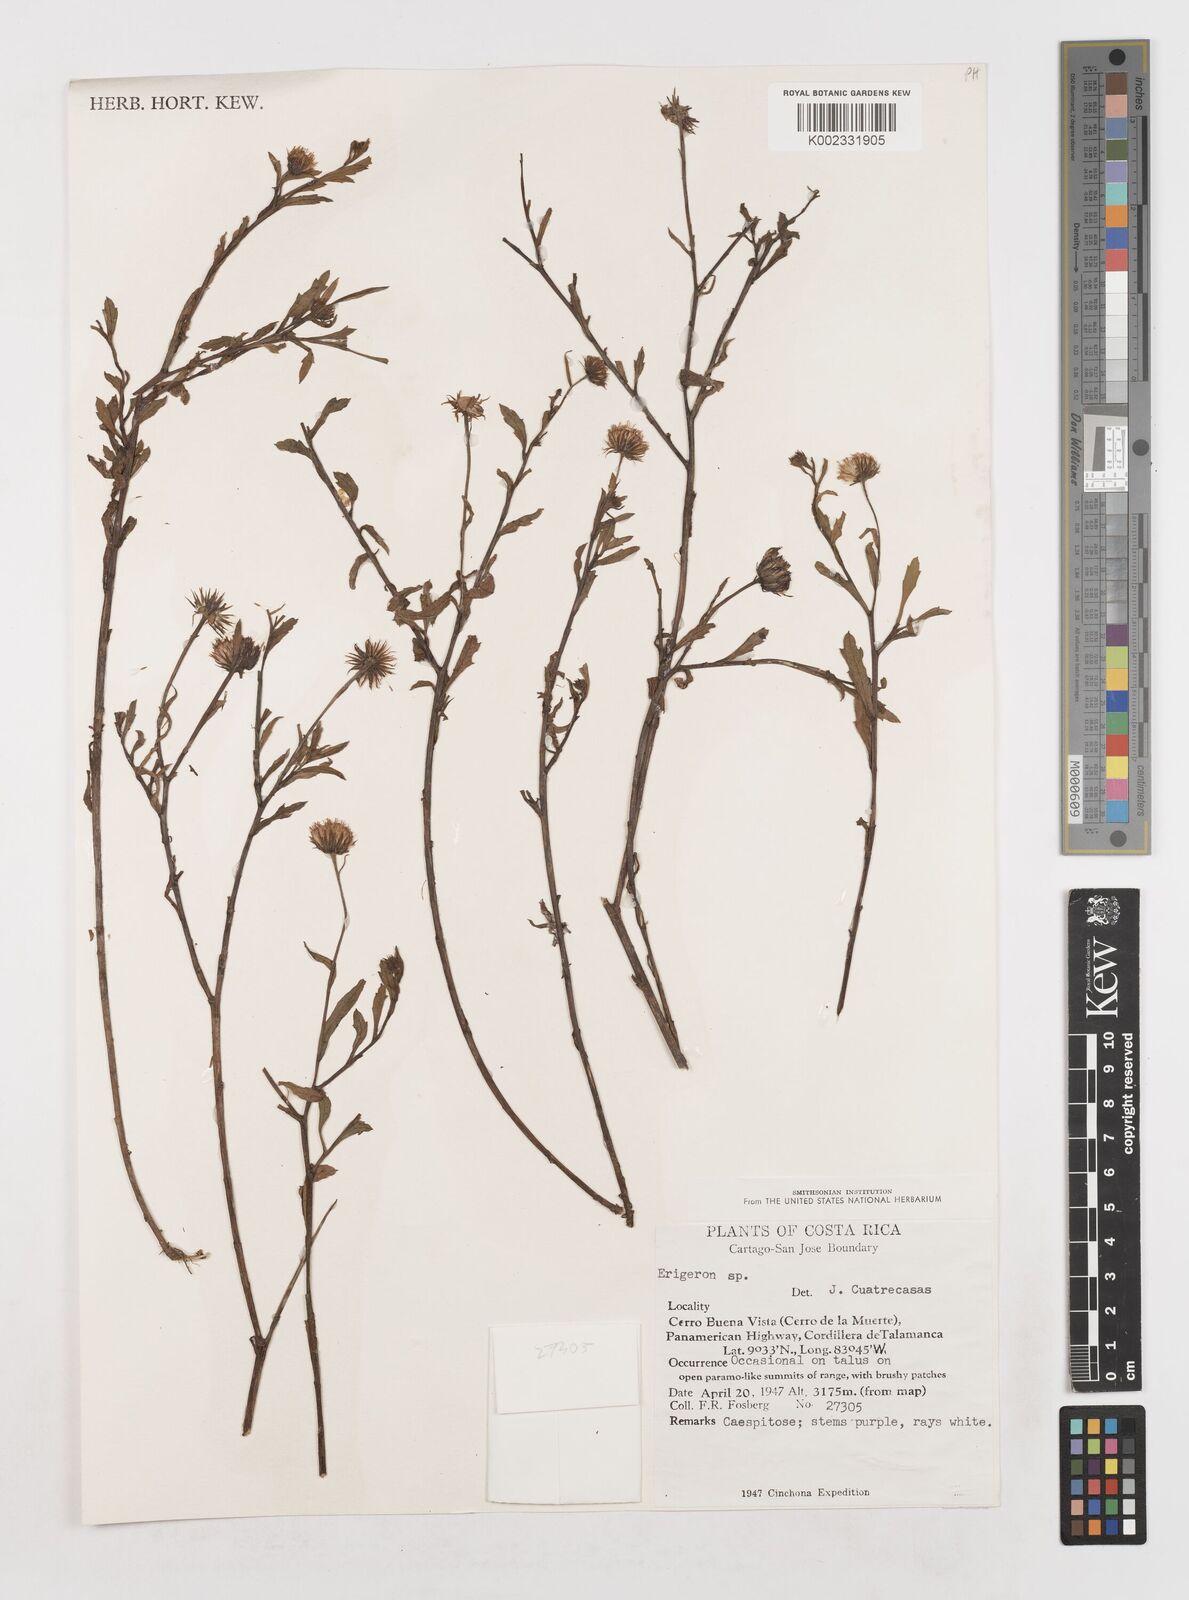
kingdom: Plantae
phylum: Tracheophyta
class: Magnoliopsida
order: Asterales
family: Asteraceae
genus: Erigeron
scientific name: Erigeron
